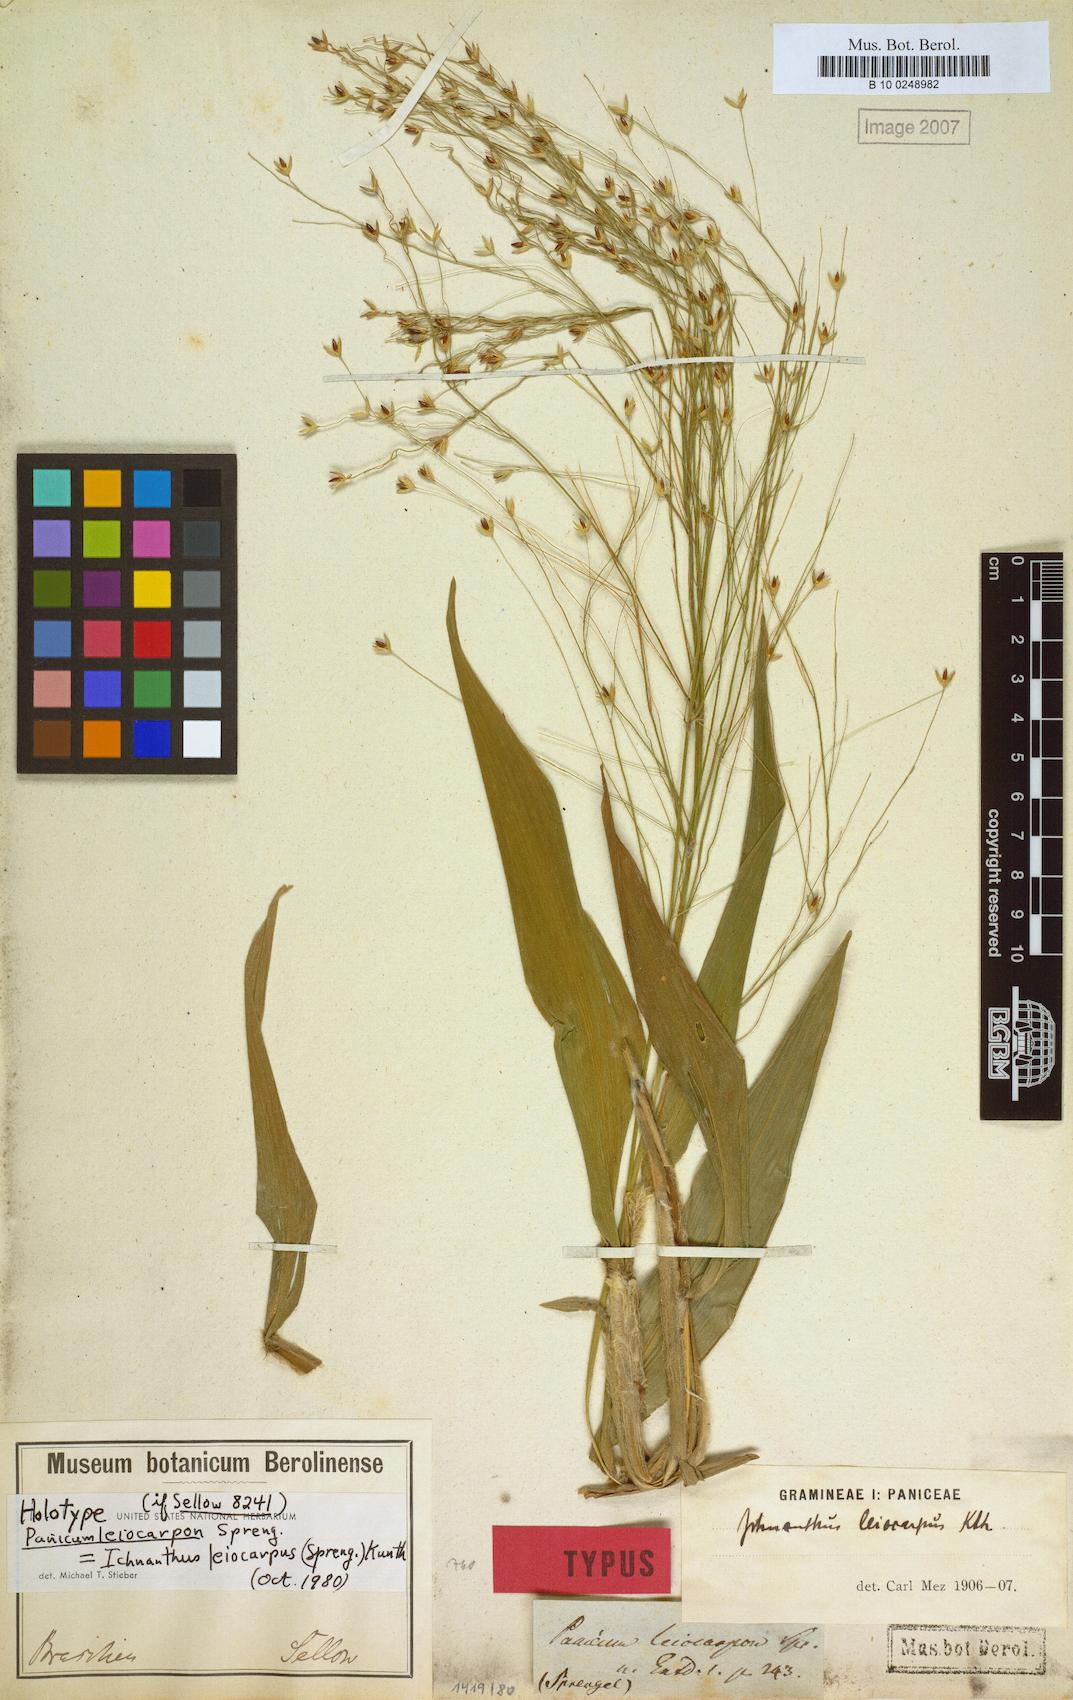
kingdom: Plantae
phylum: Tracheophyta
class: Liliopsida
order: Poales
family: Poaceae
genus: Ichnanthus
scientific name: Ichnanthus leiocarpus
